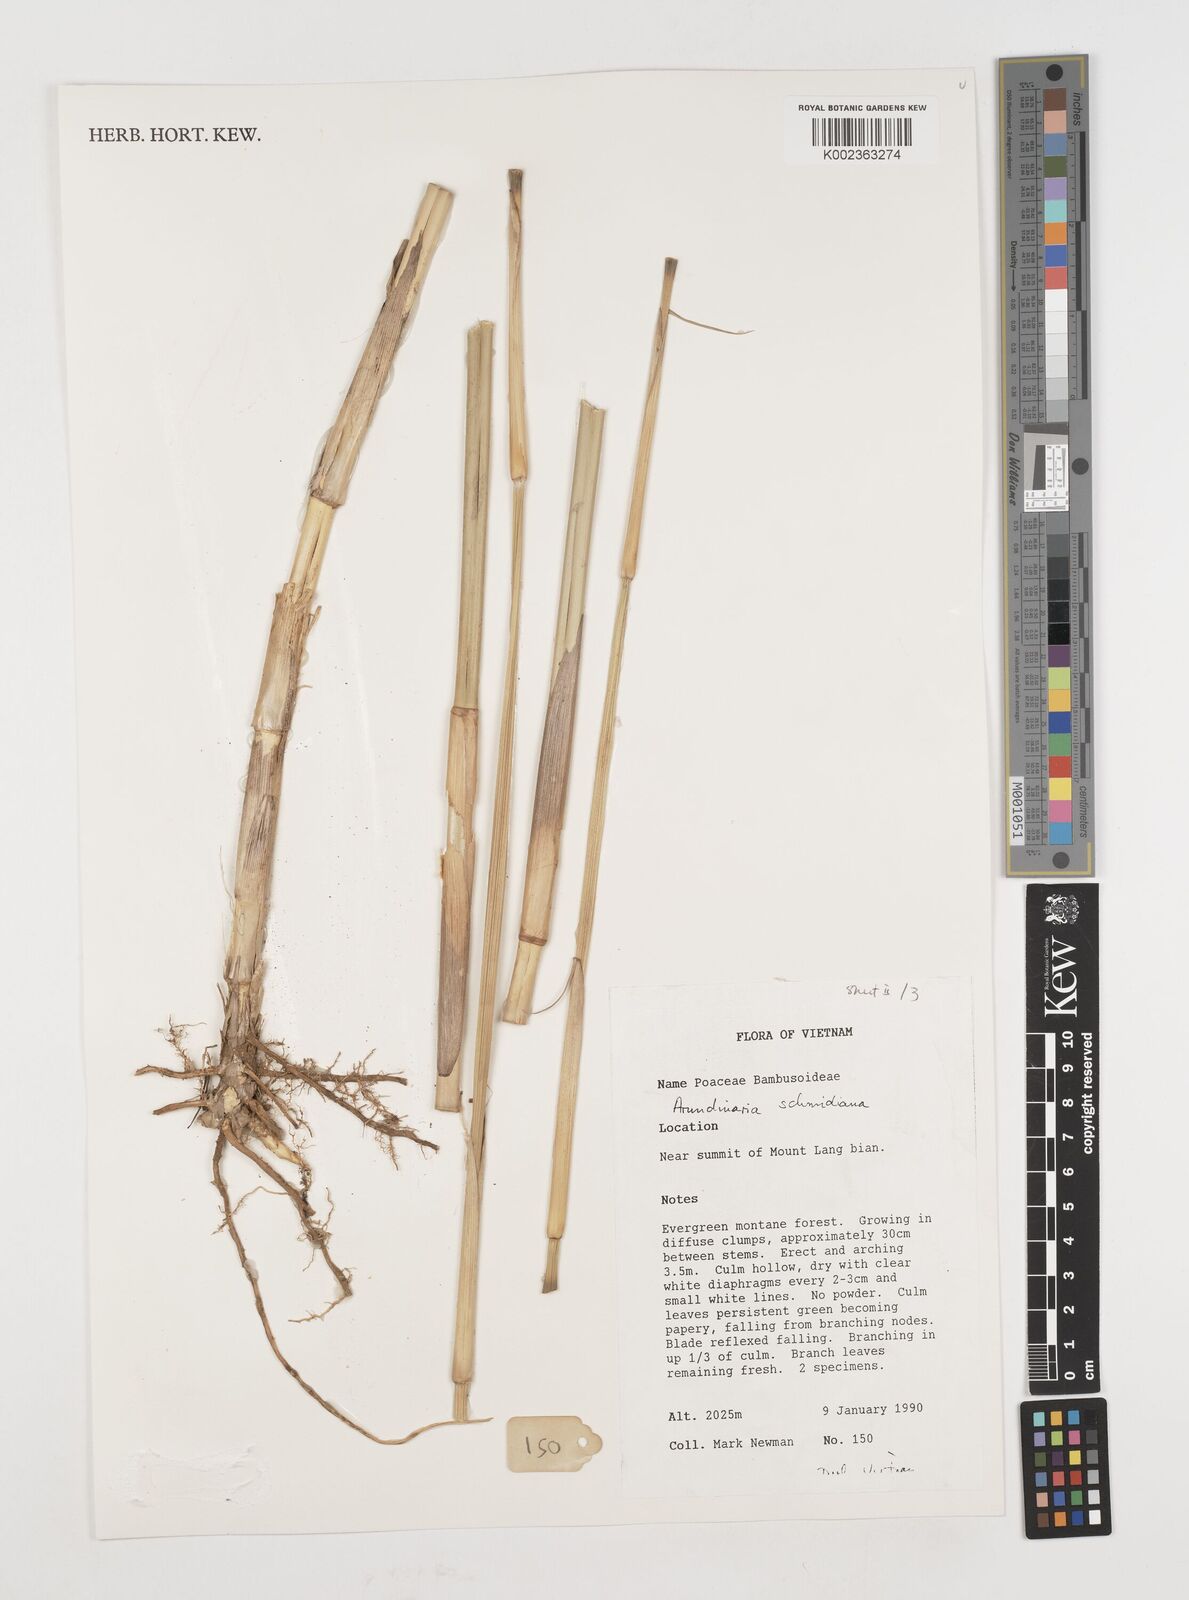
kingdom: Plantae
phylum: Tracheophyta
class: Liliopsida
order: Poales
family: Poaceae
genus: Fargesia
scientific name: Fargesia
